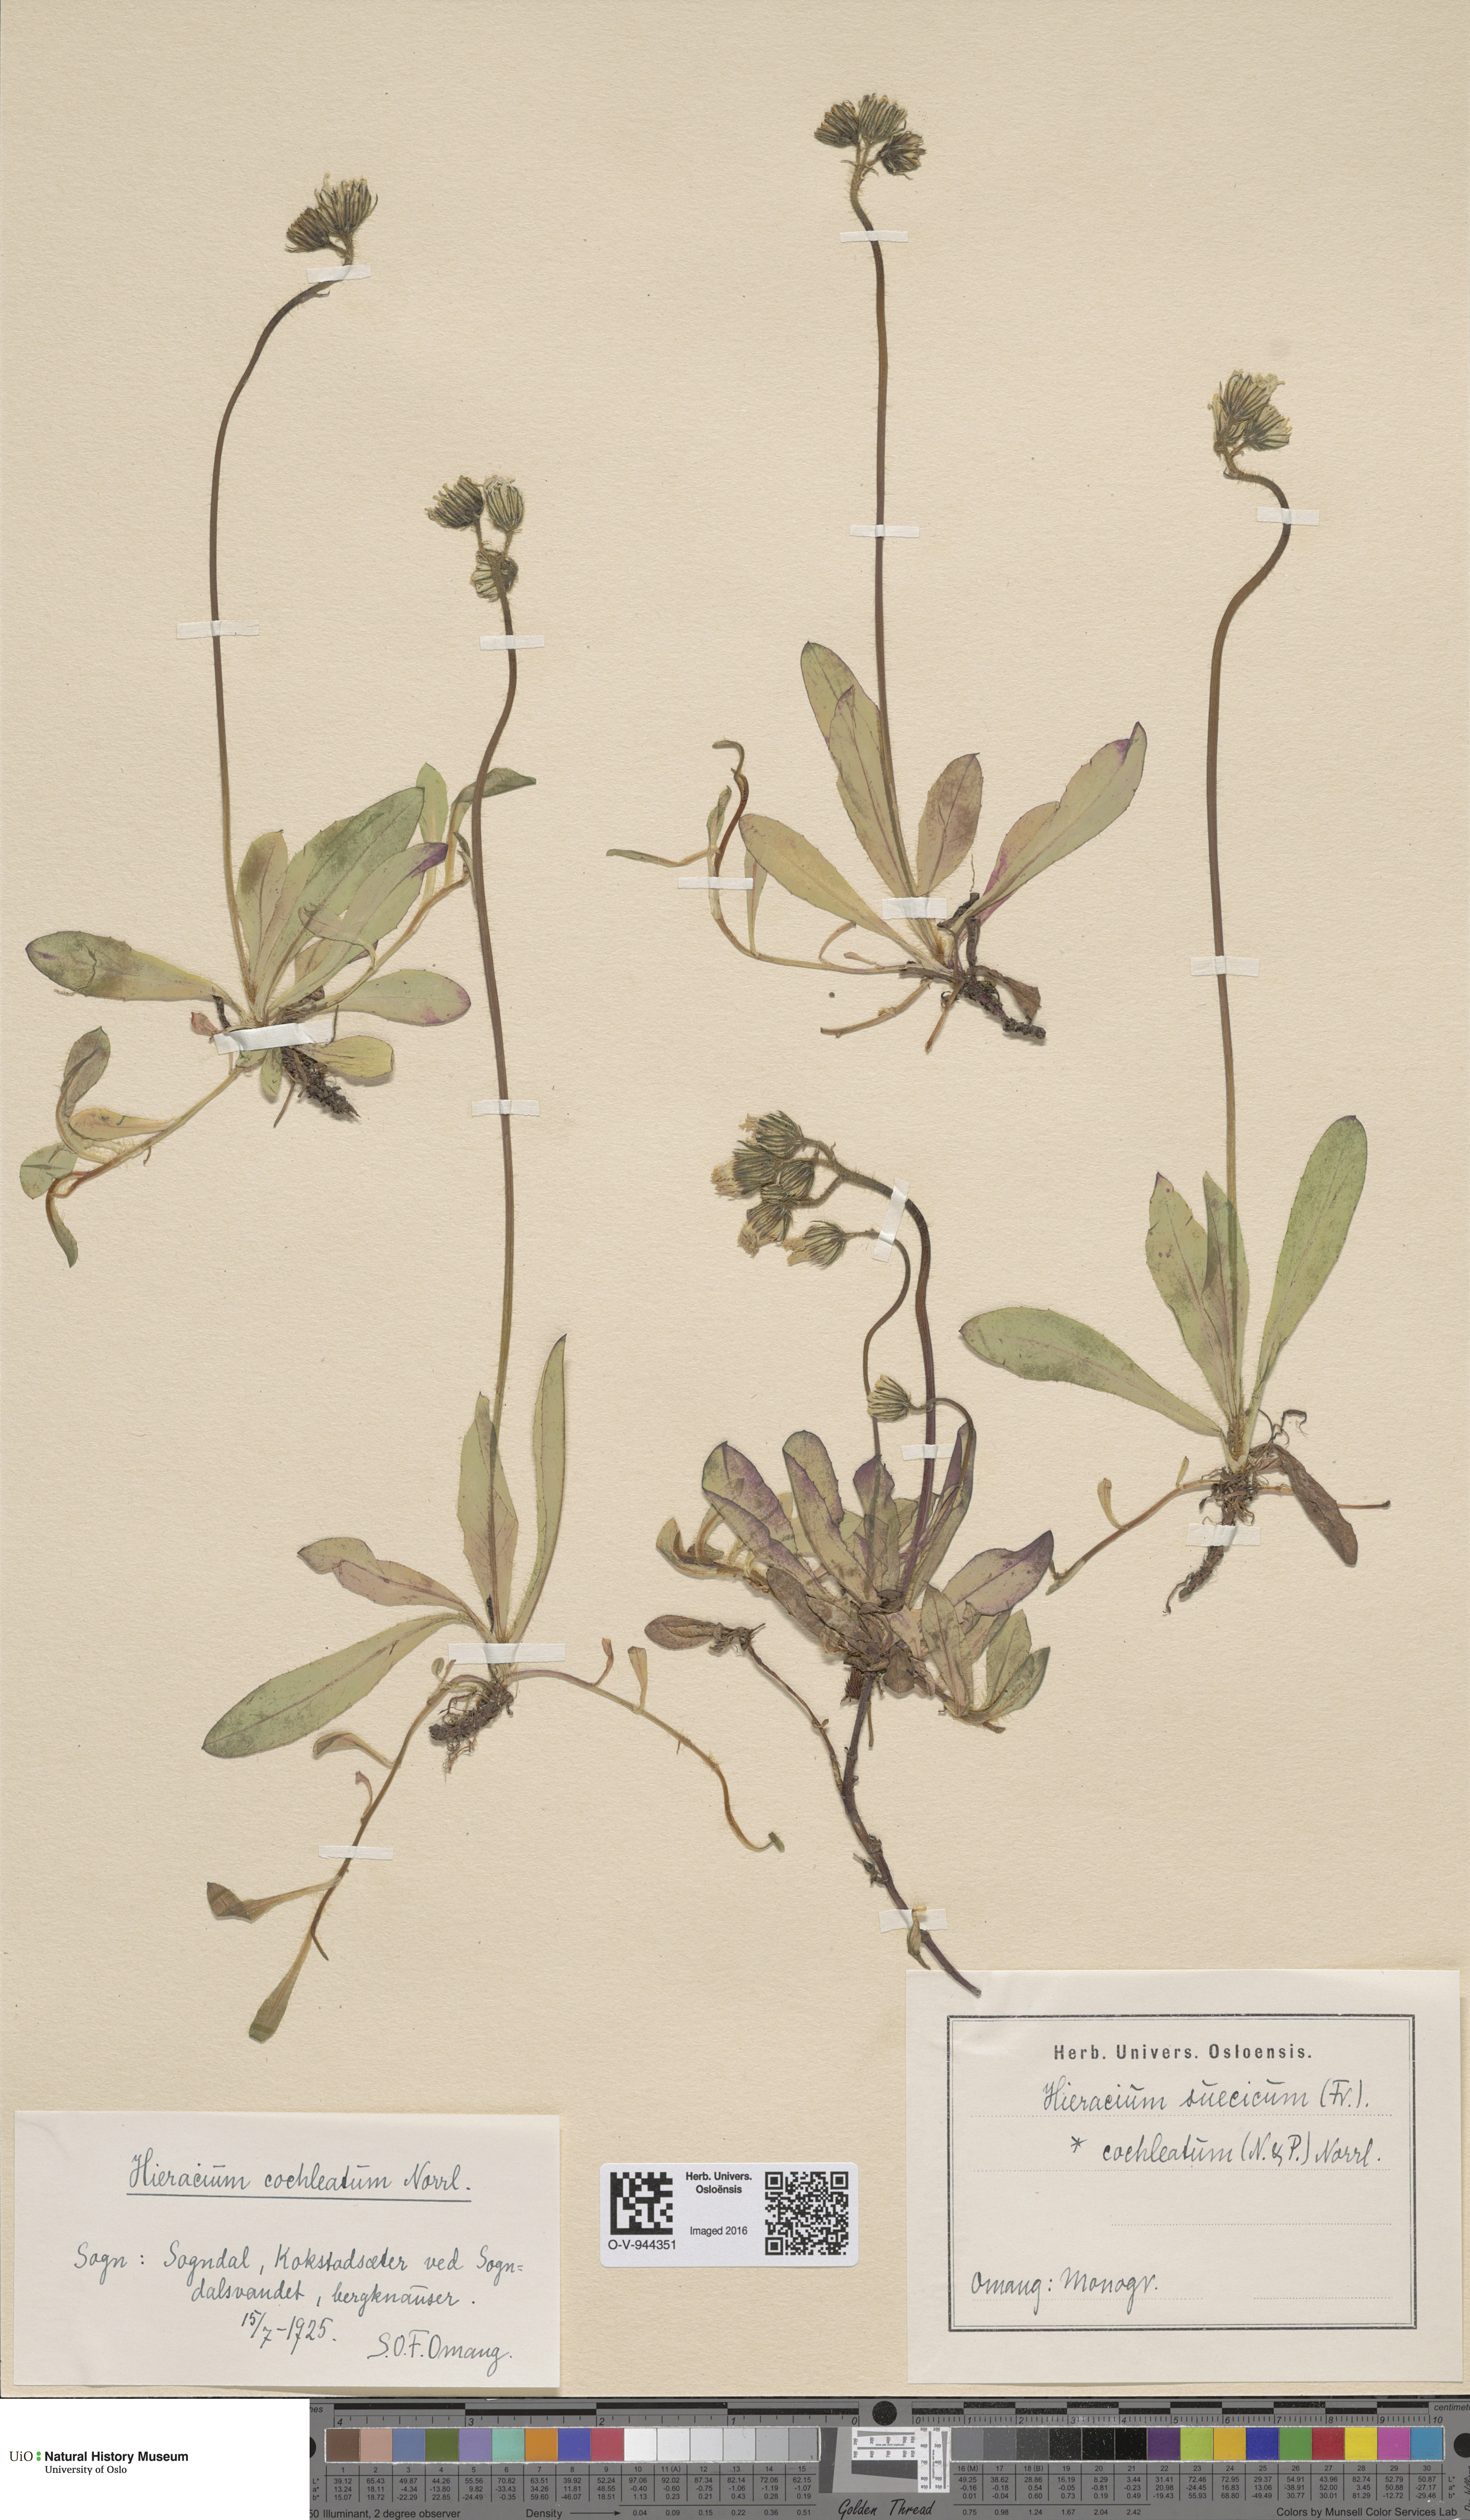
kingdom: Plantae
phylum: Tracheophyta
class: Magnoliopsida
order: Asterales
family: Asteraceae
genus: Pilosella
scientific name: Pilosella dubia
